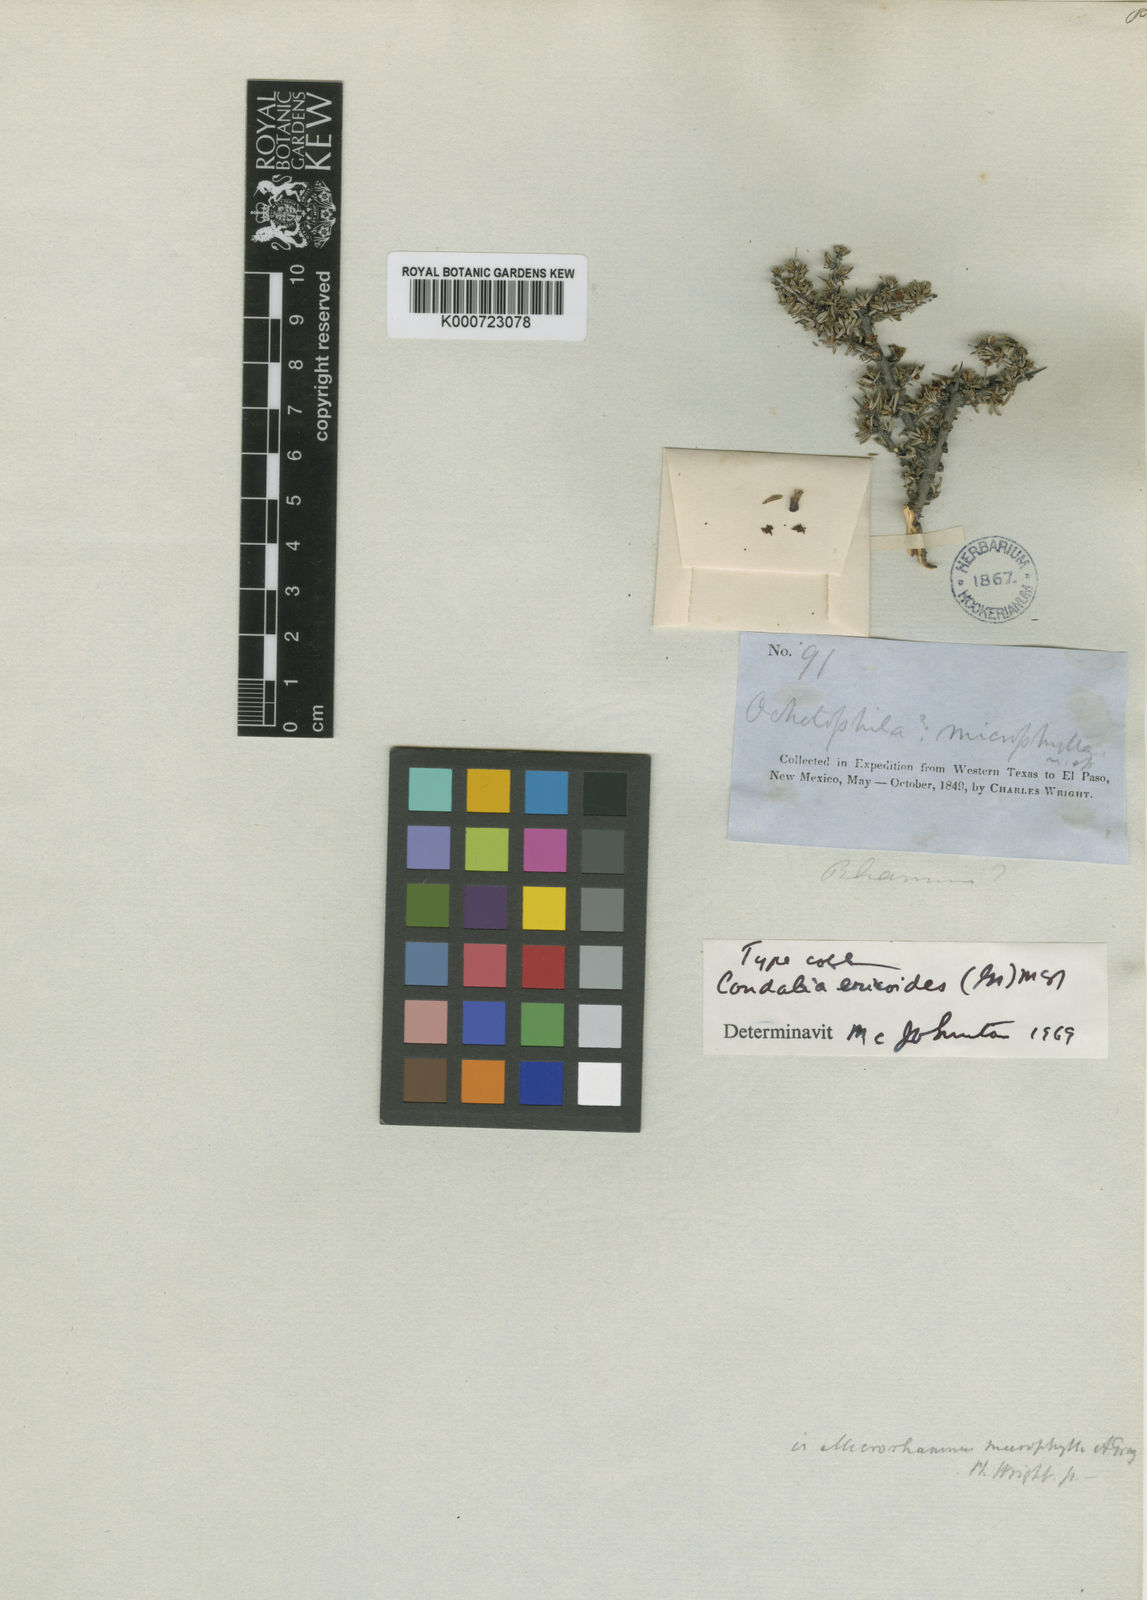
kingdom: Plantae
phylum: Tracheophyta
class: Magnoliopsida
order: Rosales
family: Rhamnaceae
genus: Condalia
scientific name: Condalia ericoides
